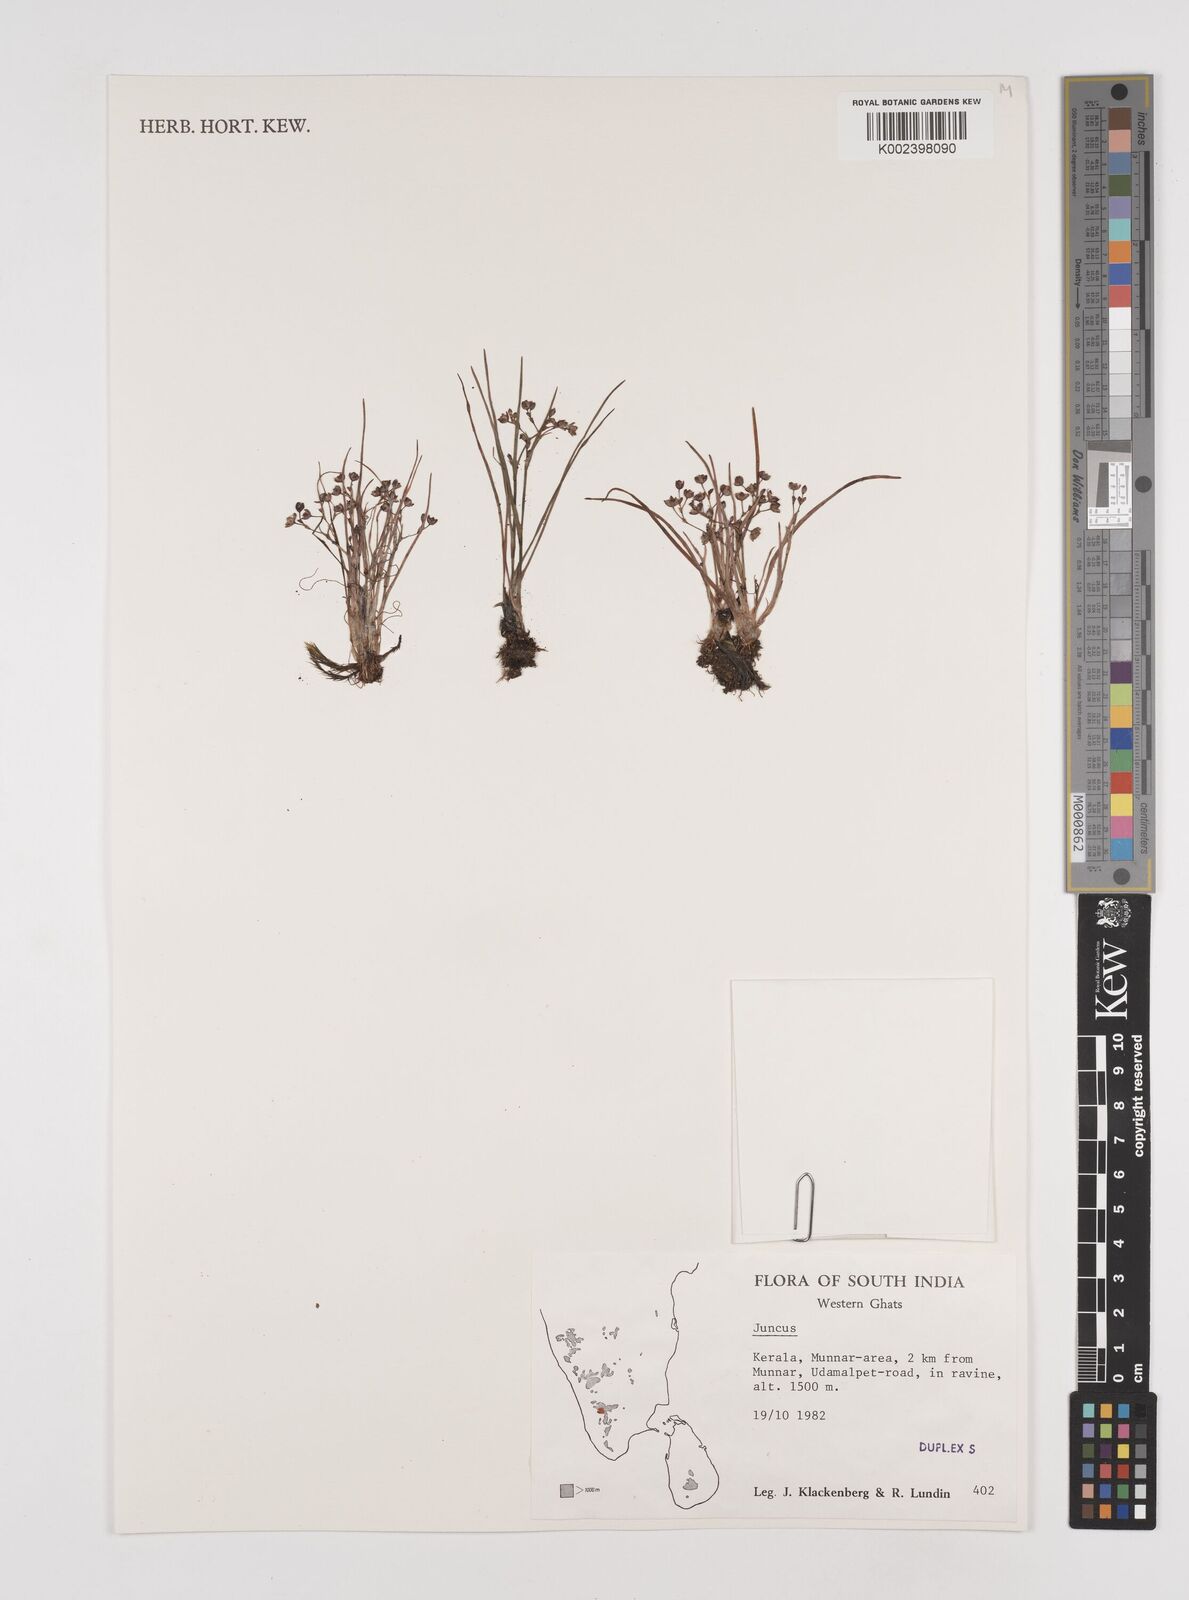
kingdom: Plantae
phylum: Tracheophyta
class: Liliopsida
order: Poales
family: Juncaceae
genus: Juncus
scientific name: Juncus
